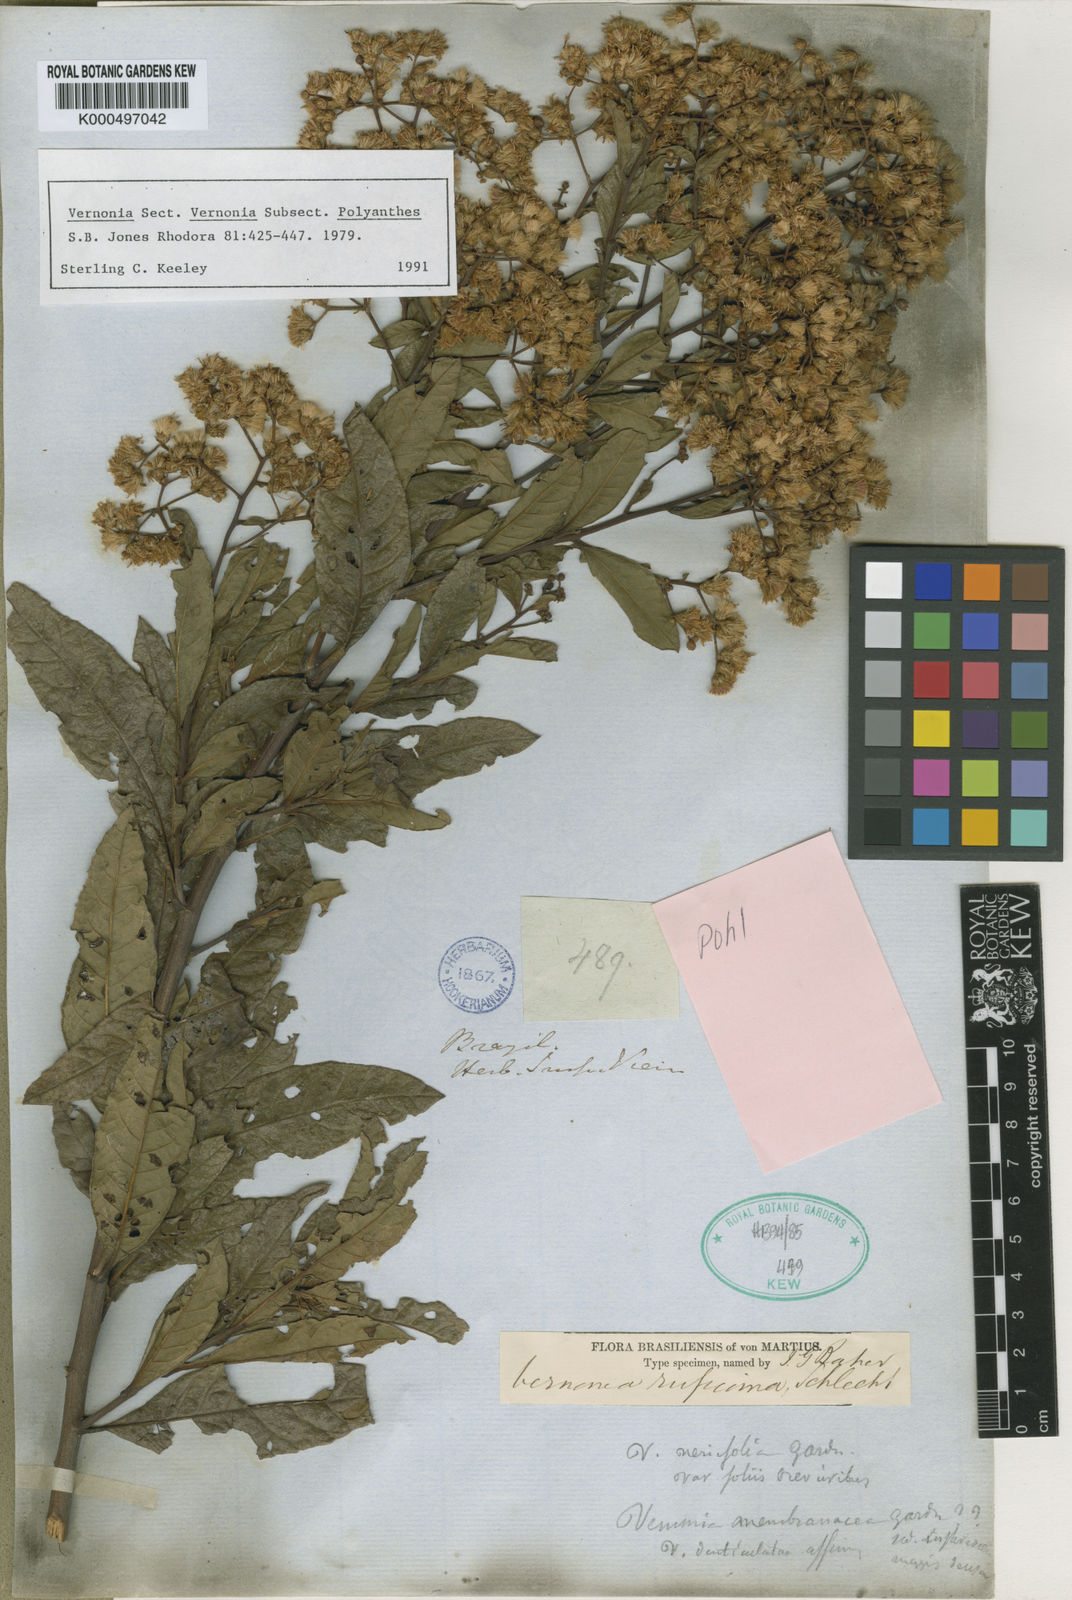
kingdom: Plantae
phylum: Tracheophyta
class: Magnoliopsida
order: Asterales
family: Asteraceae
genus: Vernonia
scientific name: Vernonia
